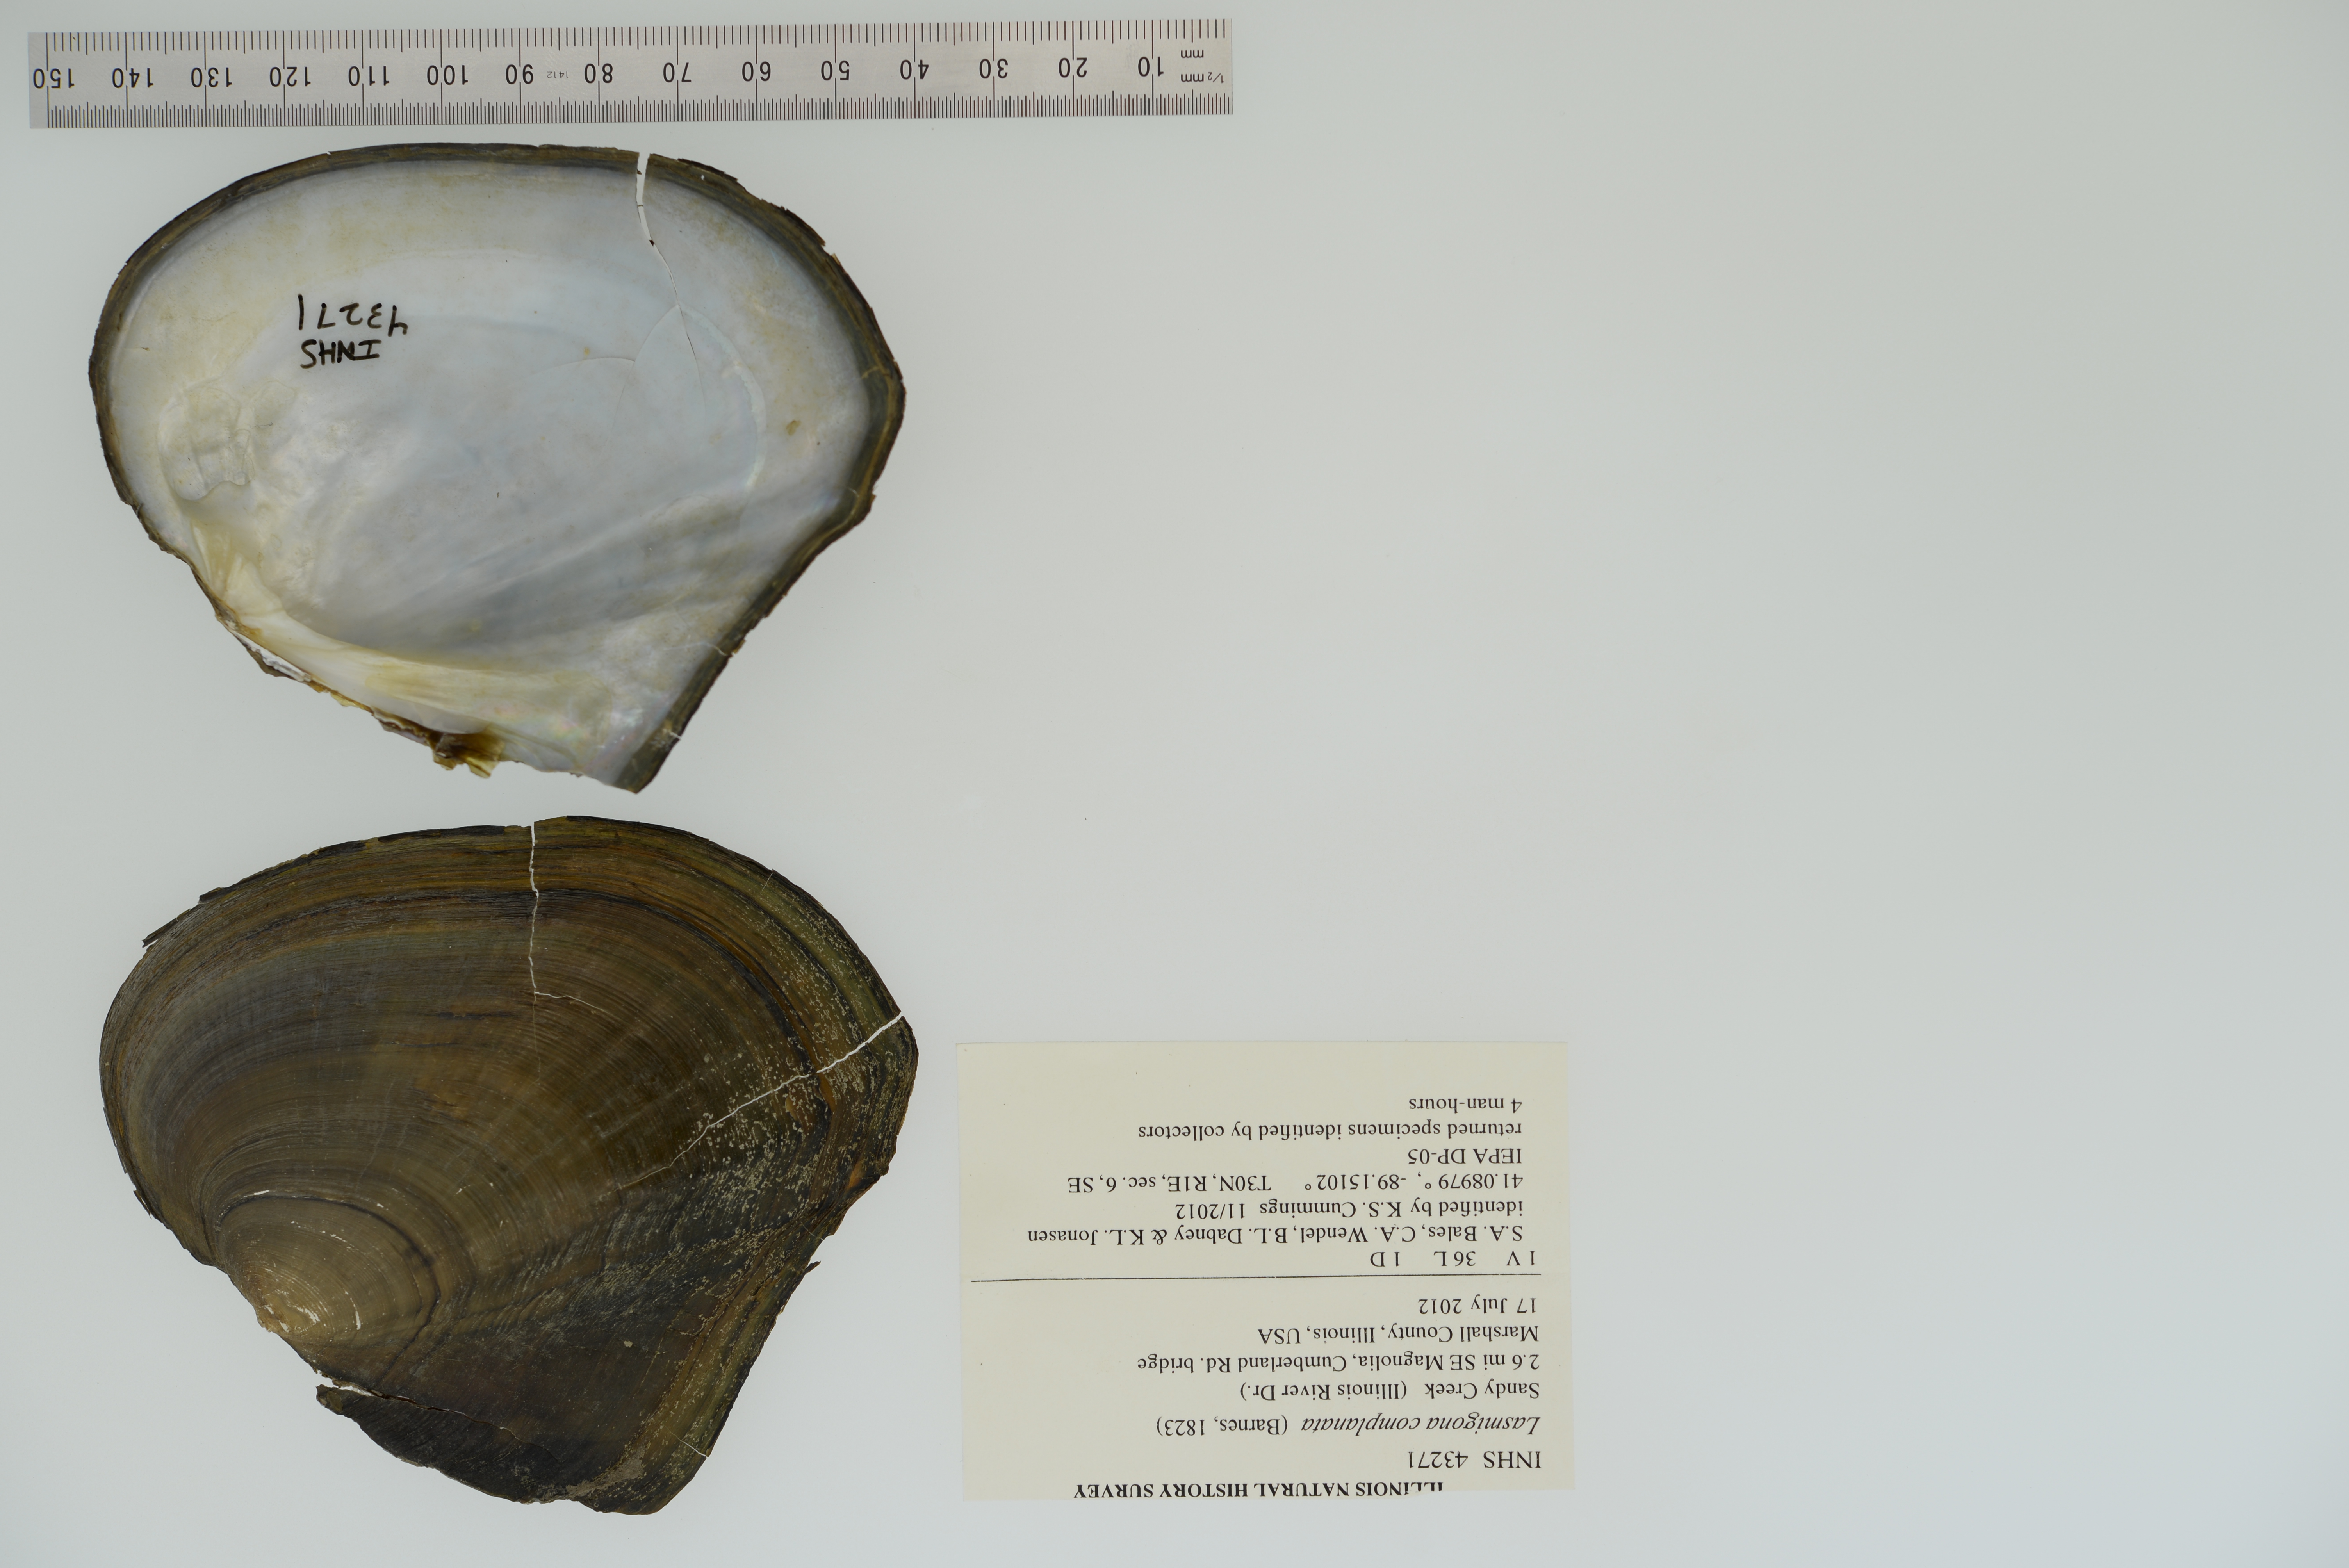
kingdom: Animalia
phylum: Mollusca
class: Bivalvia
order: Unionida
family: Unionidae
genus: Lasmigona
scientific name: Lasmigona complanata
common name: White heelsplitter
